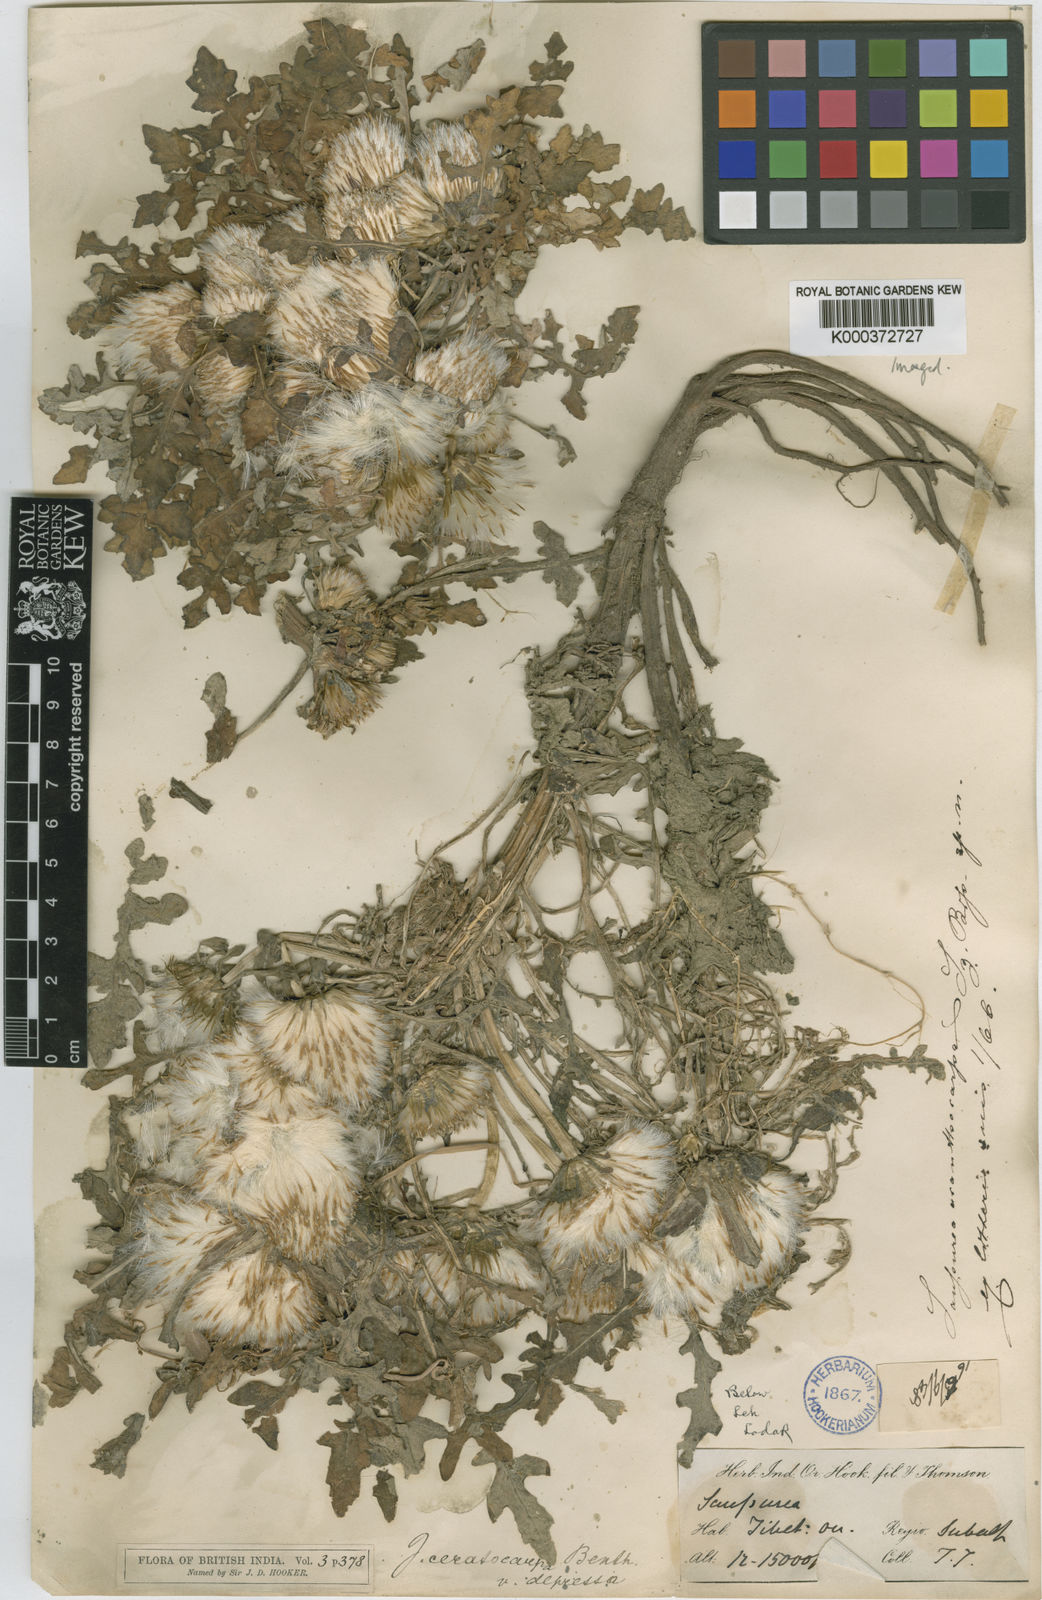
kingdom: Plantae
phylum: Tracheophyta
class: Magnoliopsida
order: Asterales
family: Asteraceae
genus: Jurinea
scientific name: Jurinea ceratocarpa
